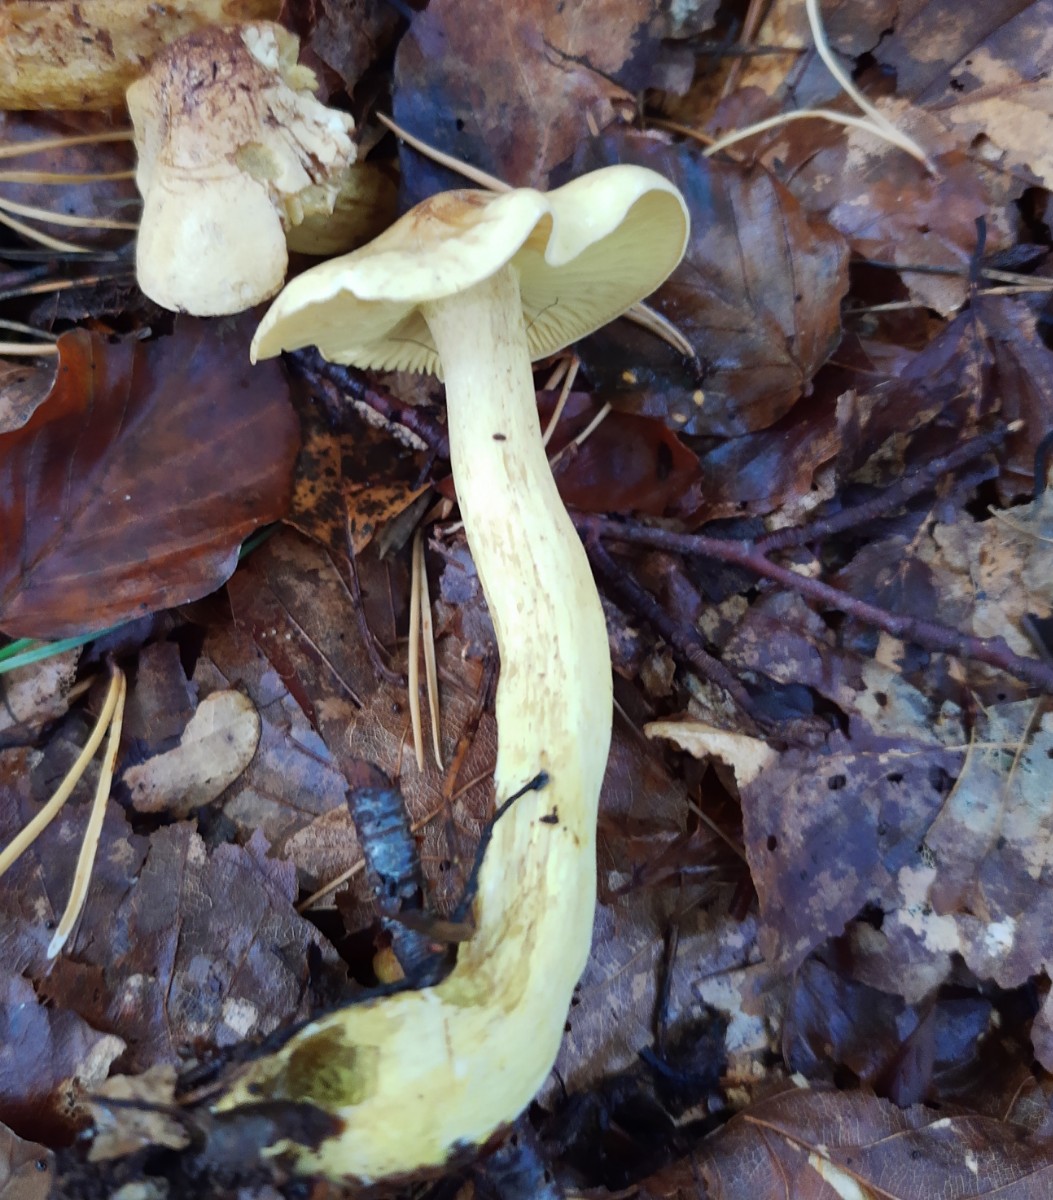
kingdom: Fungi
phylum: Basidiomycota
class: Agaricomycetes
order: Agaricales
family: Tricholomataceae
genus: Tricholoma
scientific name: Tricholoma sulphureum
